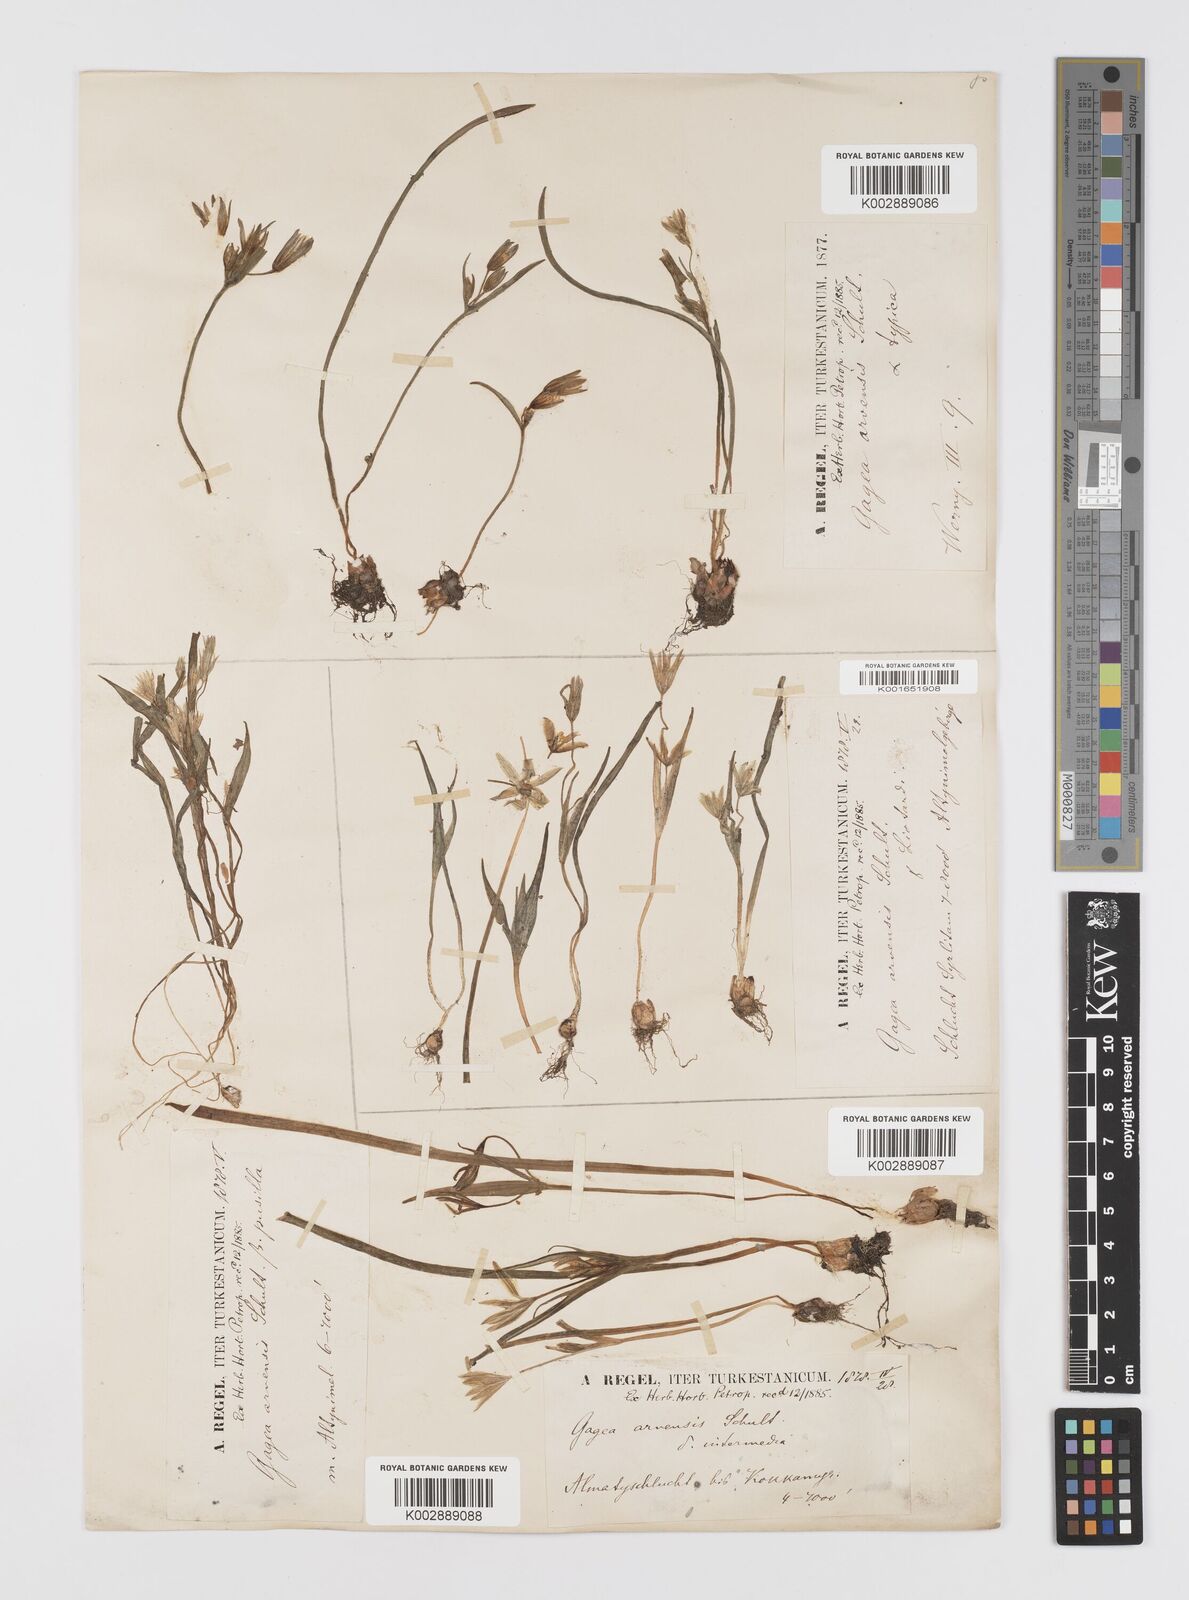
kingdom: Plantae
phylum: Tracheophyta
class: Liliopsida
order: Liliales
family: Liliaceae
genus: Gagea
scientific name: Gagea minima
